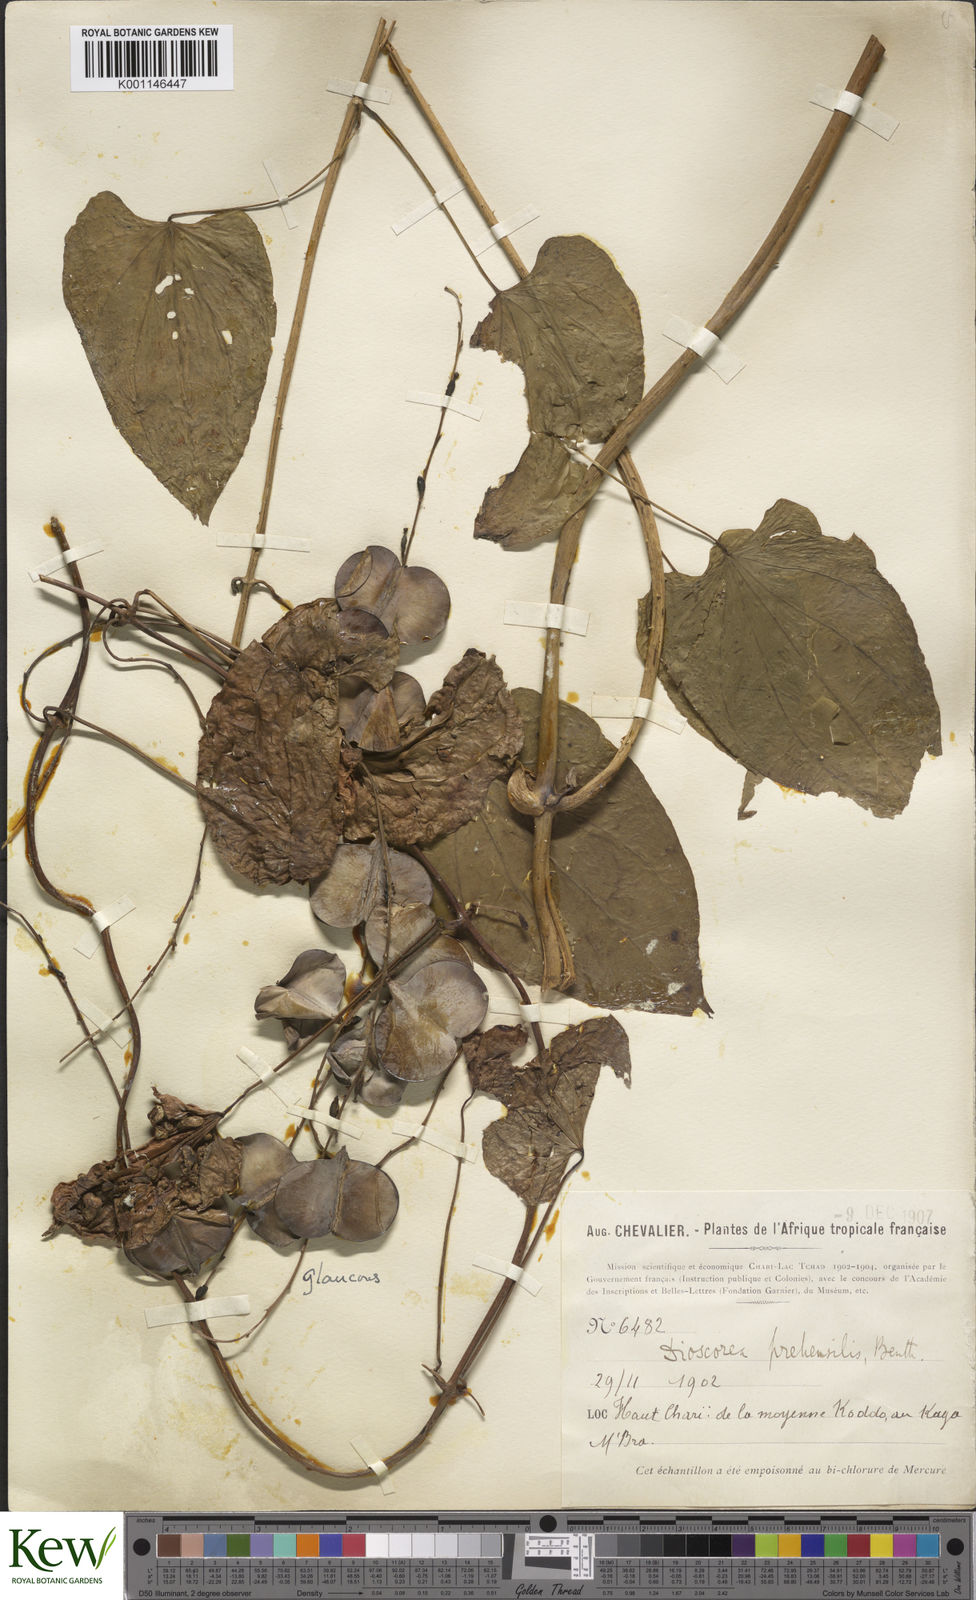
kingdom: Plantae
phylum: Tracheophyta
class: Liliopsida
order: Dioscoreales
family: Dioscoreaceae
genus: Dioscorea
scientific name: Dioscorea praehensilis
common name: Bush yam
